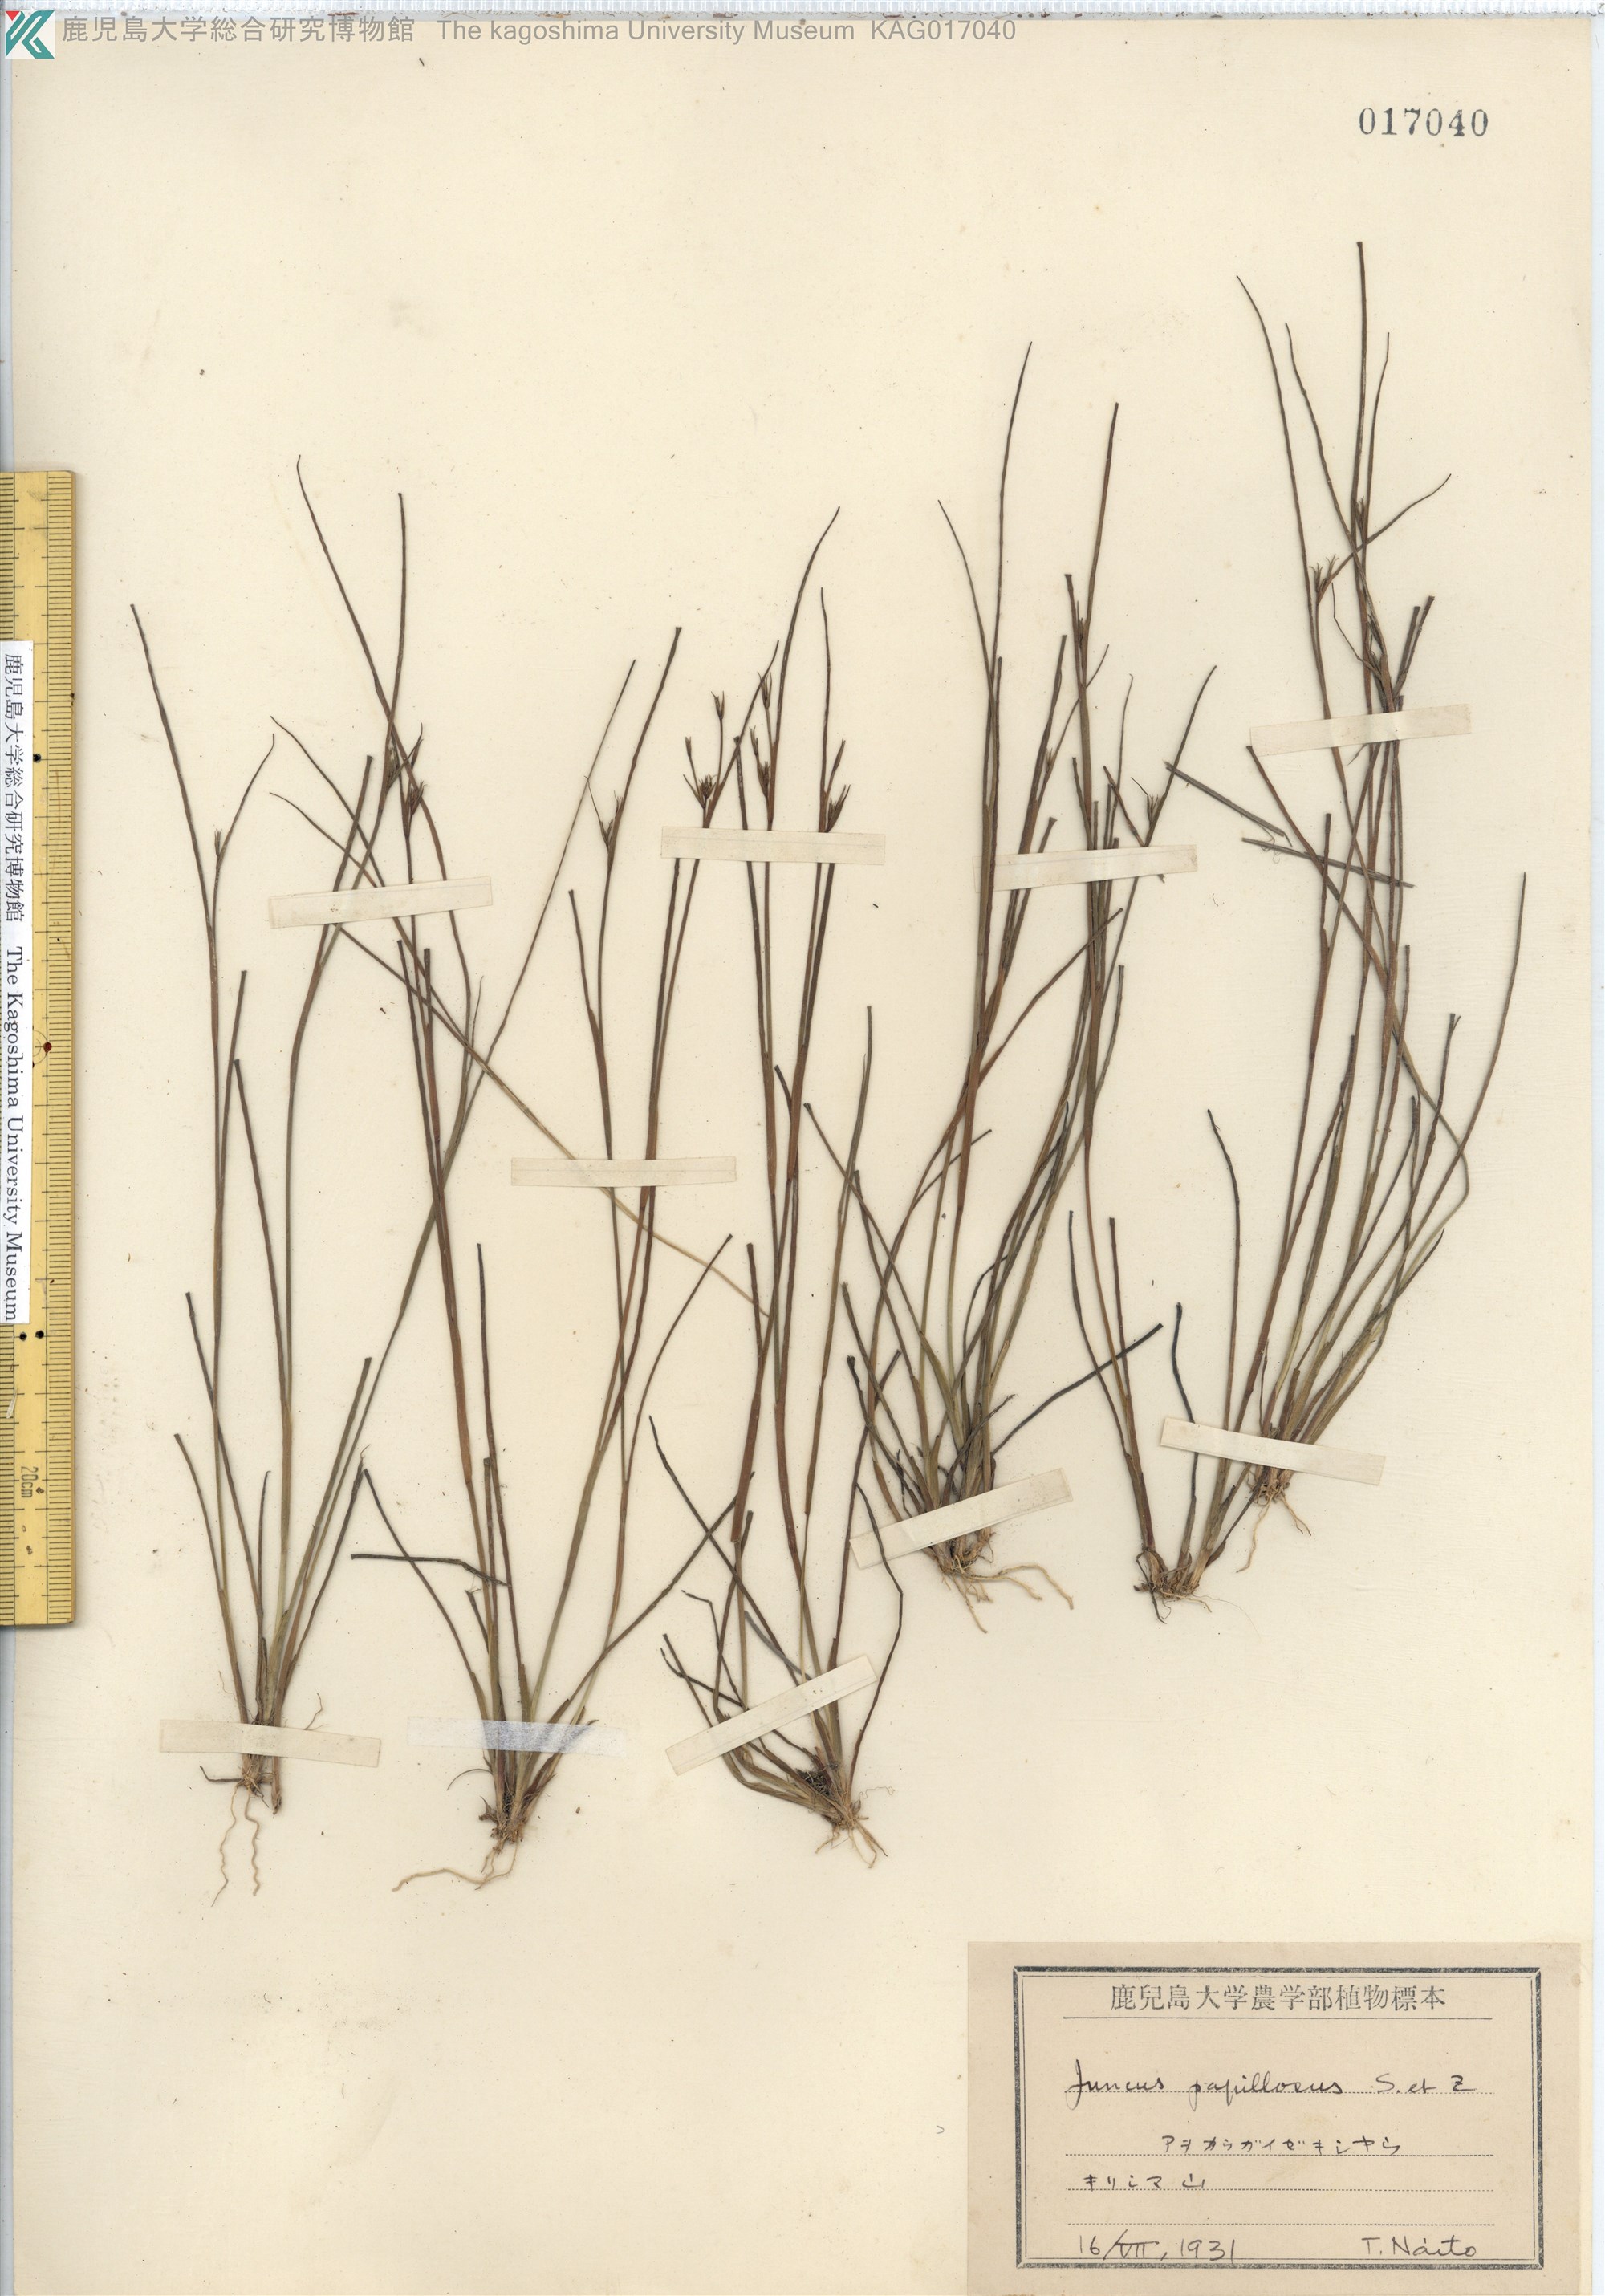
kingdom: Plantae
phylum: Tracheophyta
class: Liliopsida
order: Poales
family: Juncaceae
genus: Juncus
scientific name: Juncus papillosus
